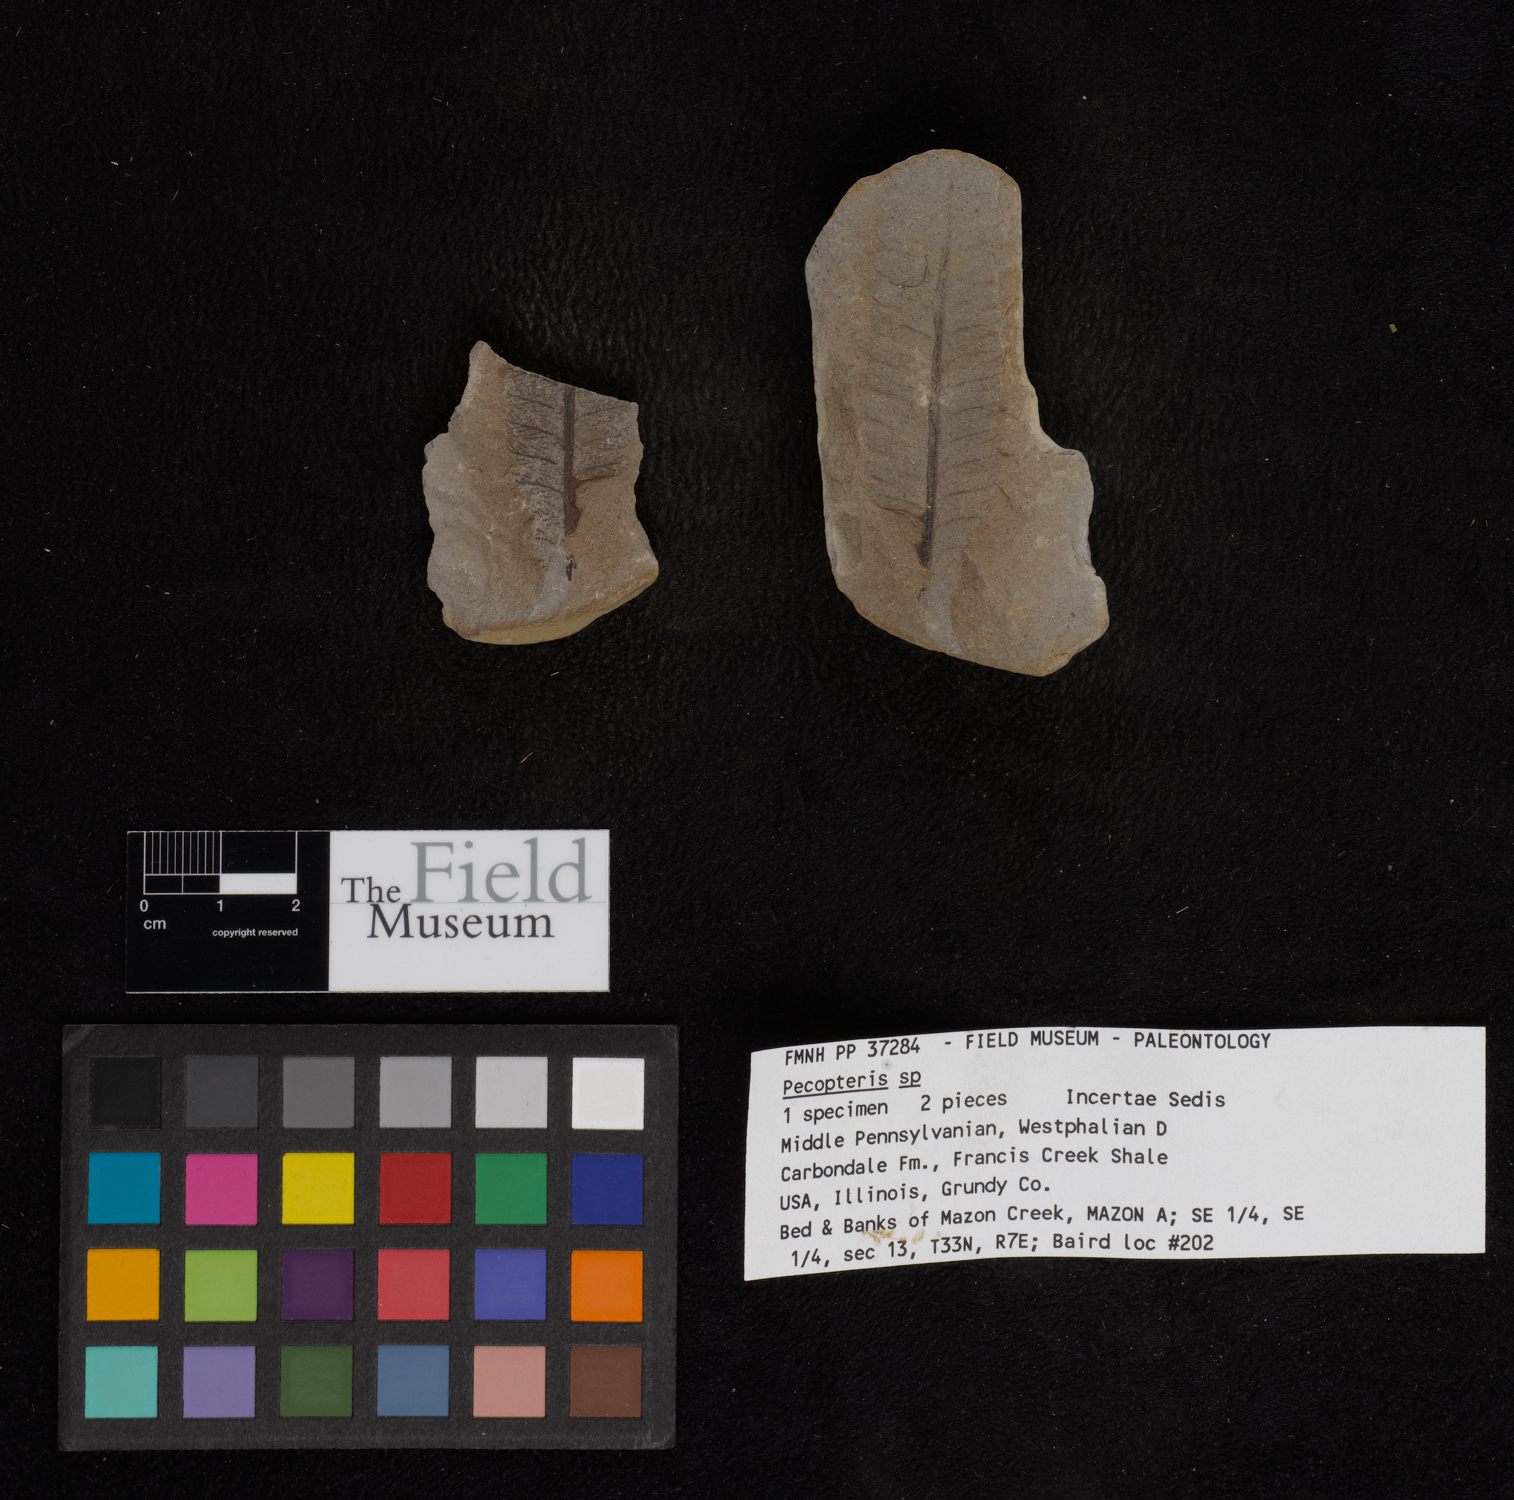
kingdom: Plantae
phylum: Tracheophyta
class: Polypodiopsida
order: Marattiales
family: Asterothecaceae
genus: Pecopteris
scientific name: Pecopteris
